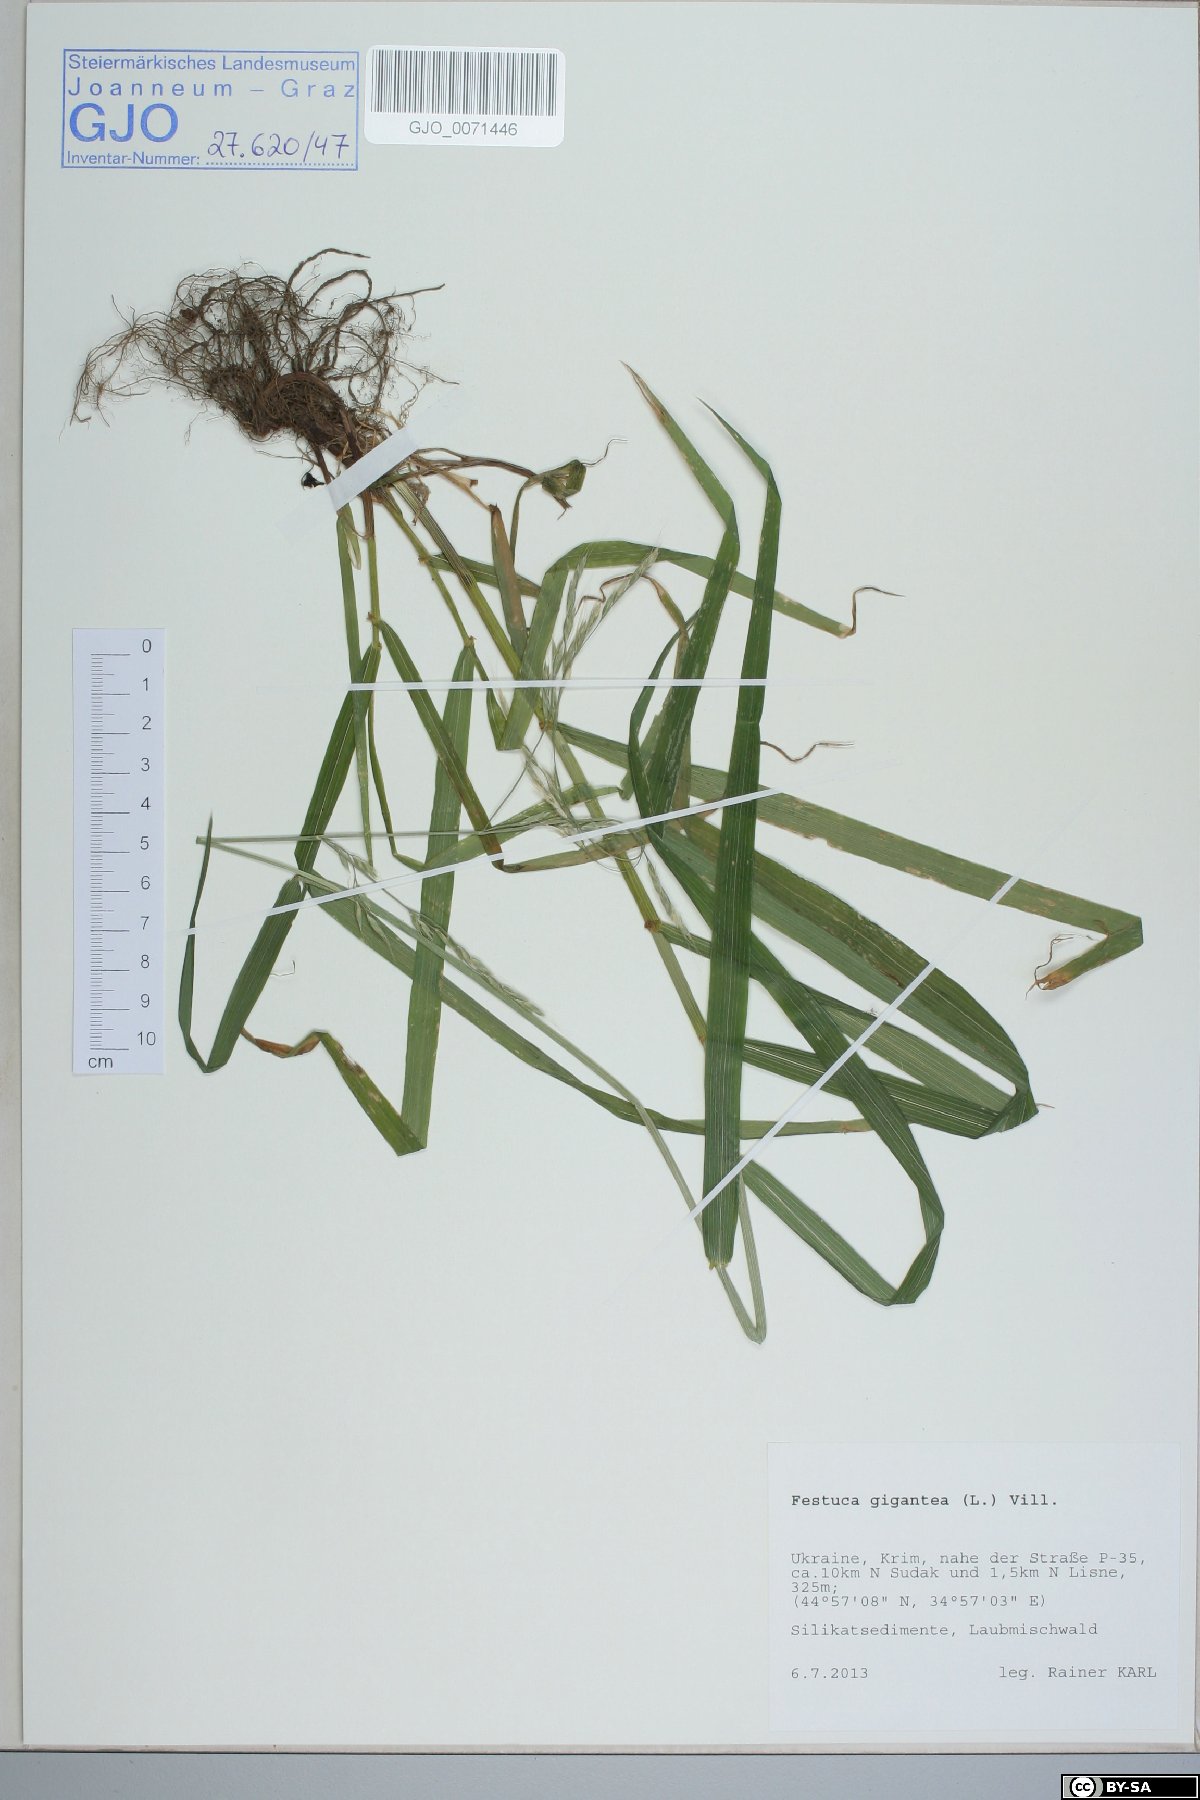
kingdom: Plantae
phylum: Tracheophyta
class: Liliopsida
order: Poales
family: Poaceae
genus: Lolium
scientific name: Lolium giganteum
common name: Giant fescue
